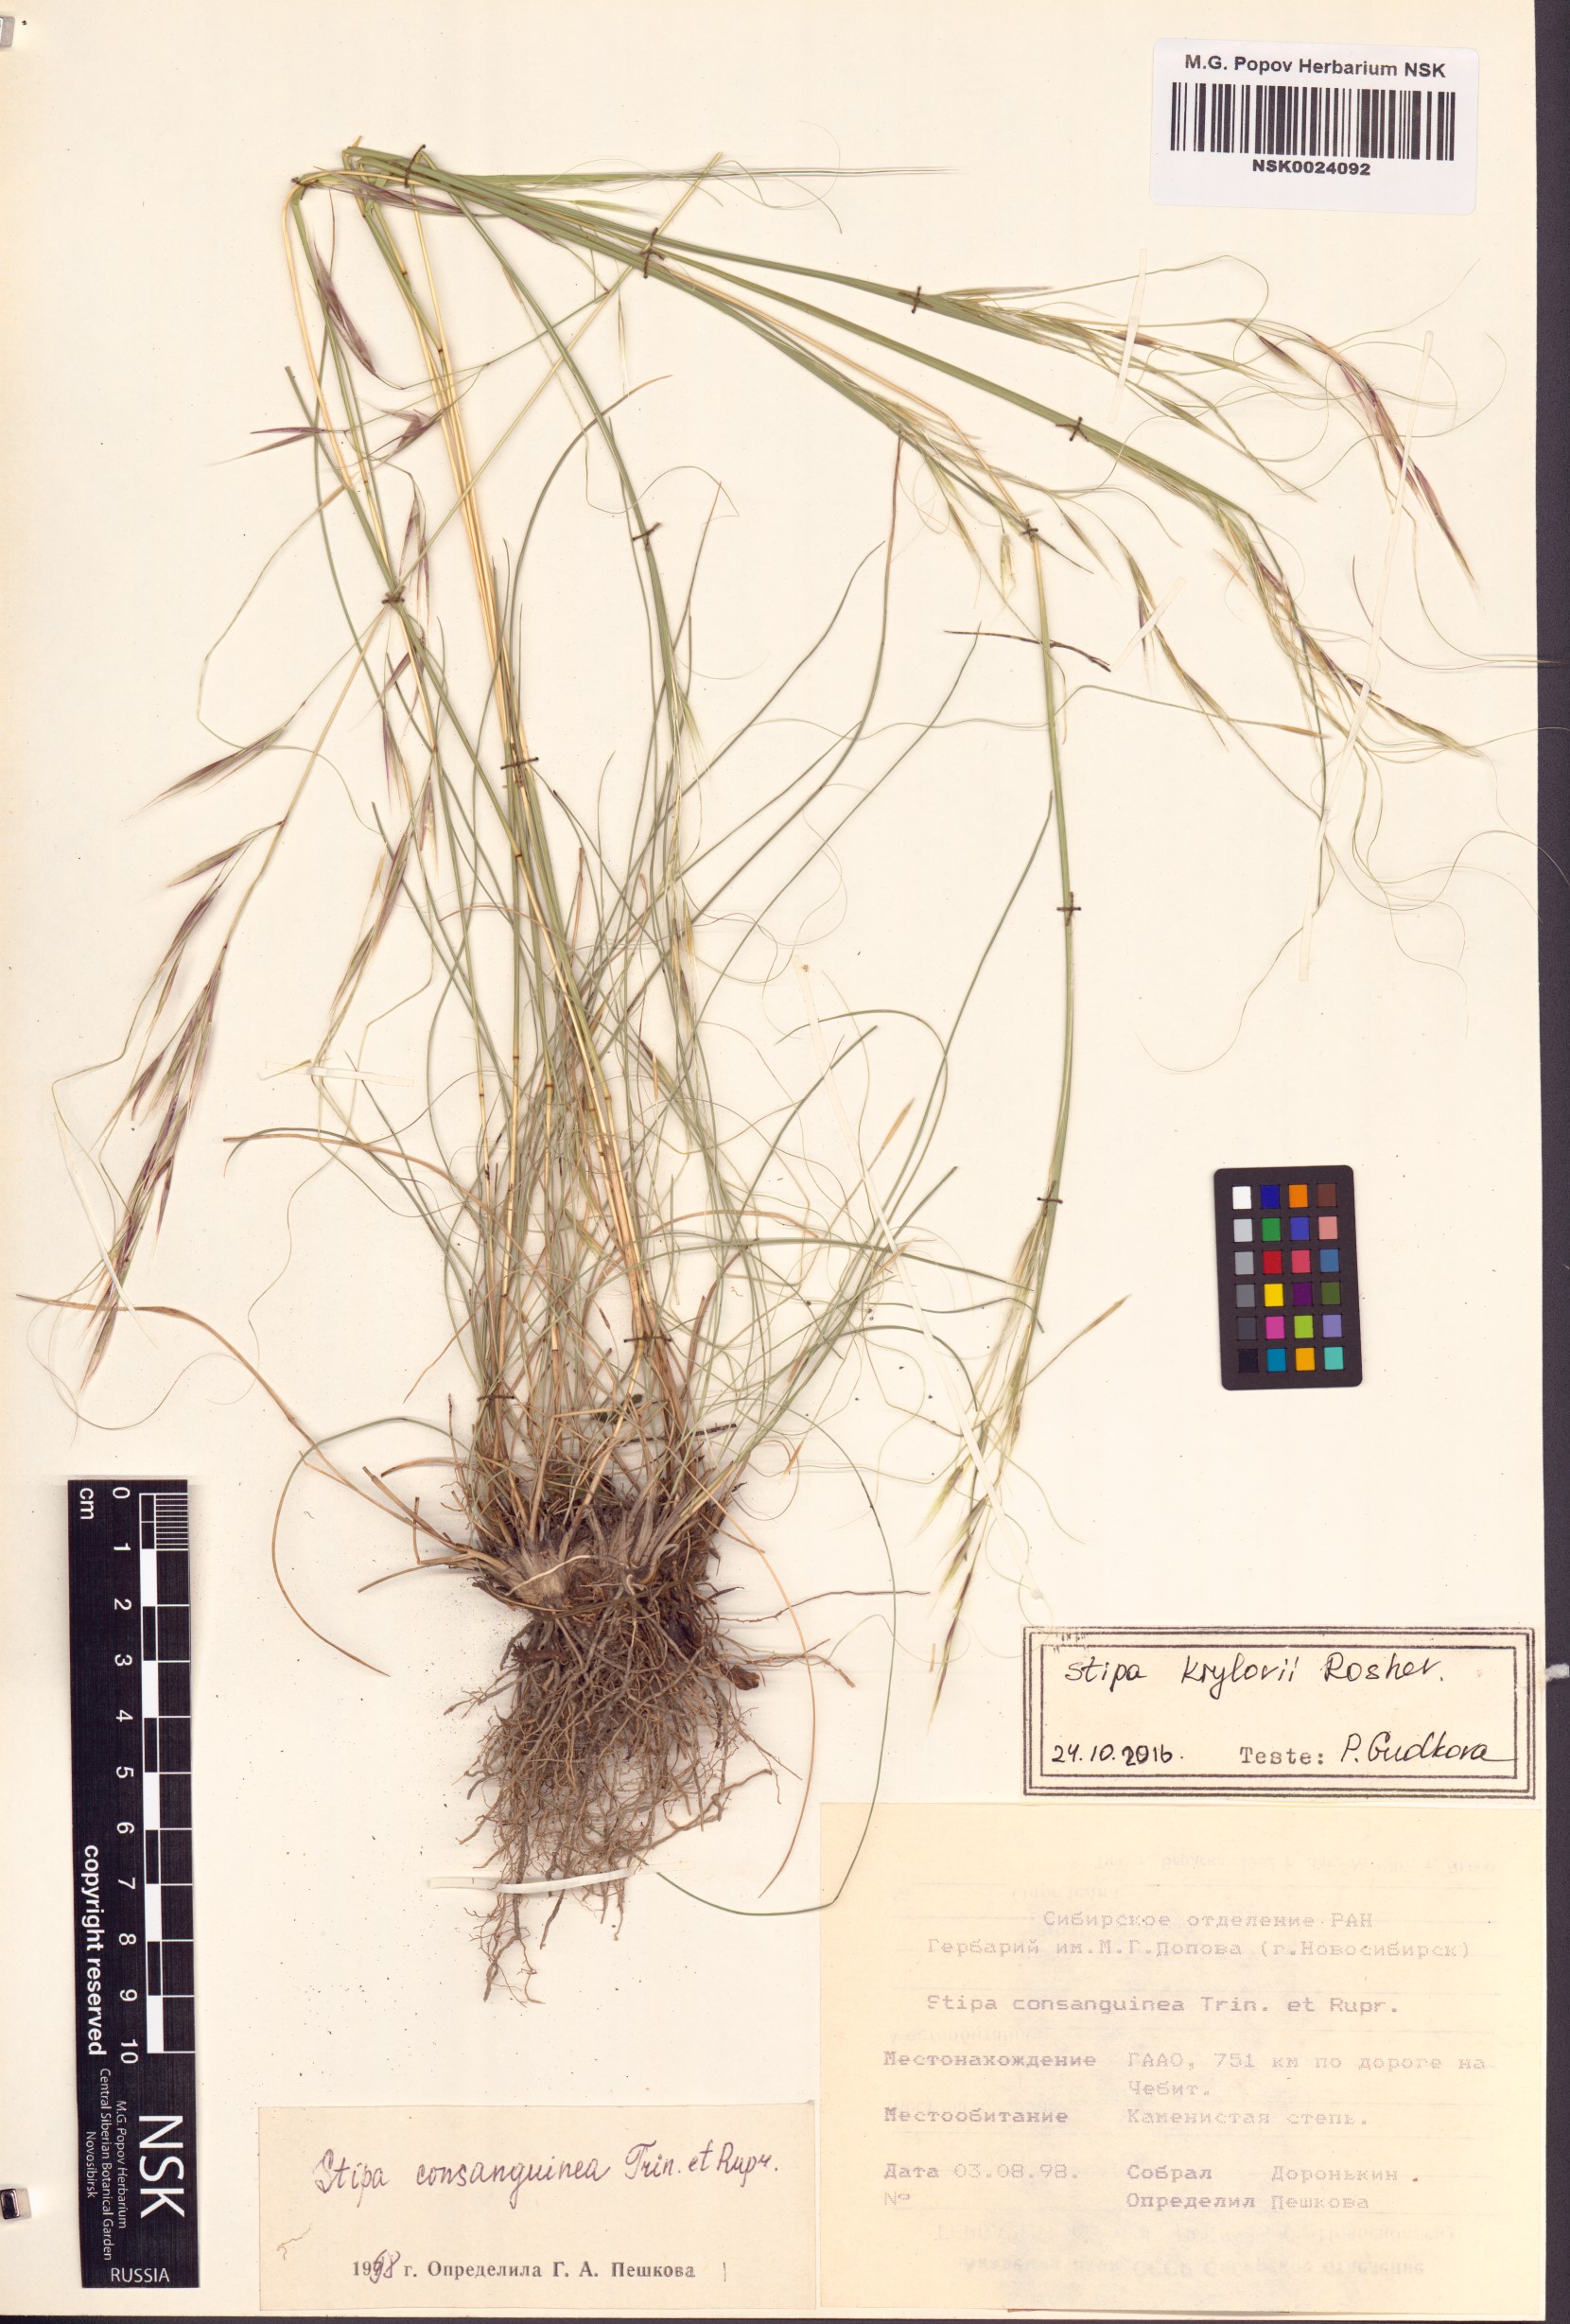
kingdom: Plantae
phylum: Tracheophyta
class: Liliopsida
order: Poales
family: Poaceae
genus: Stipa
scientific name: Stipa krylovii
